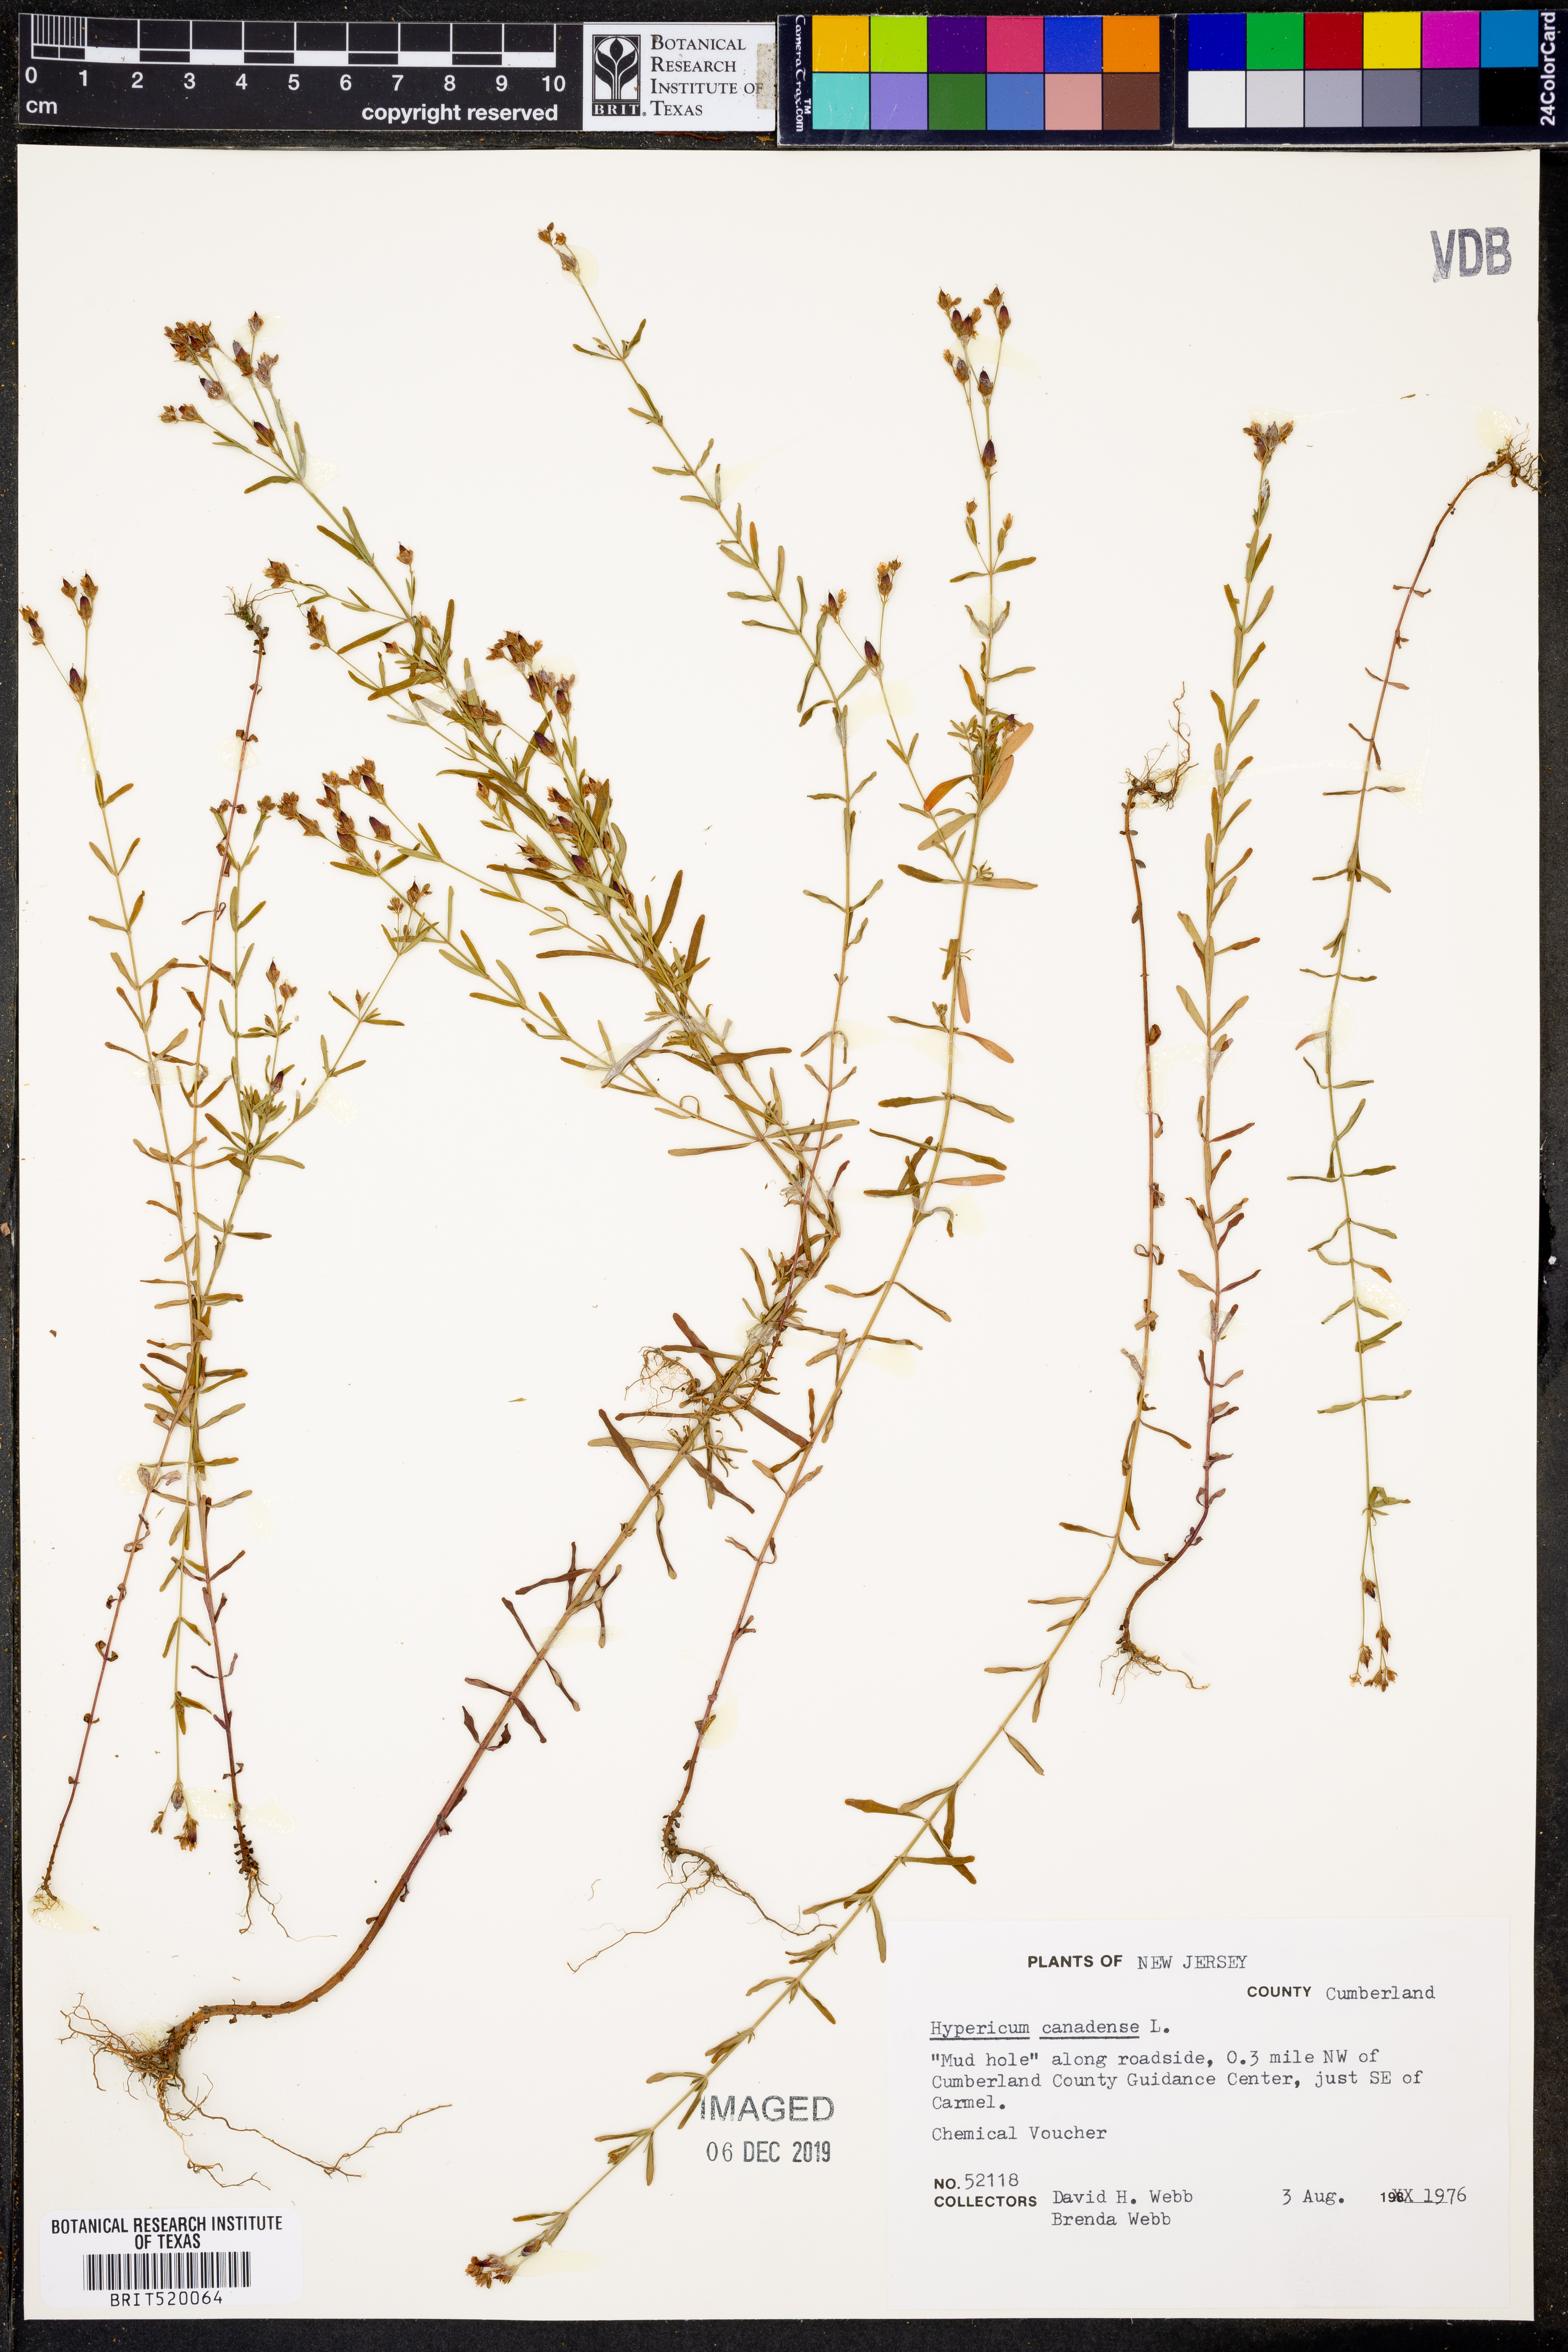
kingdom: Plantae
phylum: Tracheophyta
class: Magnoliopsida
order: Malpighiales
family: Hypericaceae
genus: Hypericum
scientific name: Hypericum canadense
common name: Irish st. john's-wort
